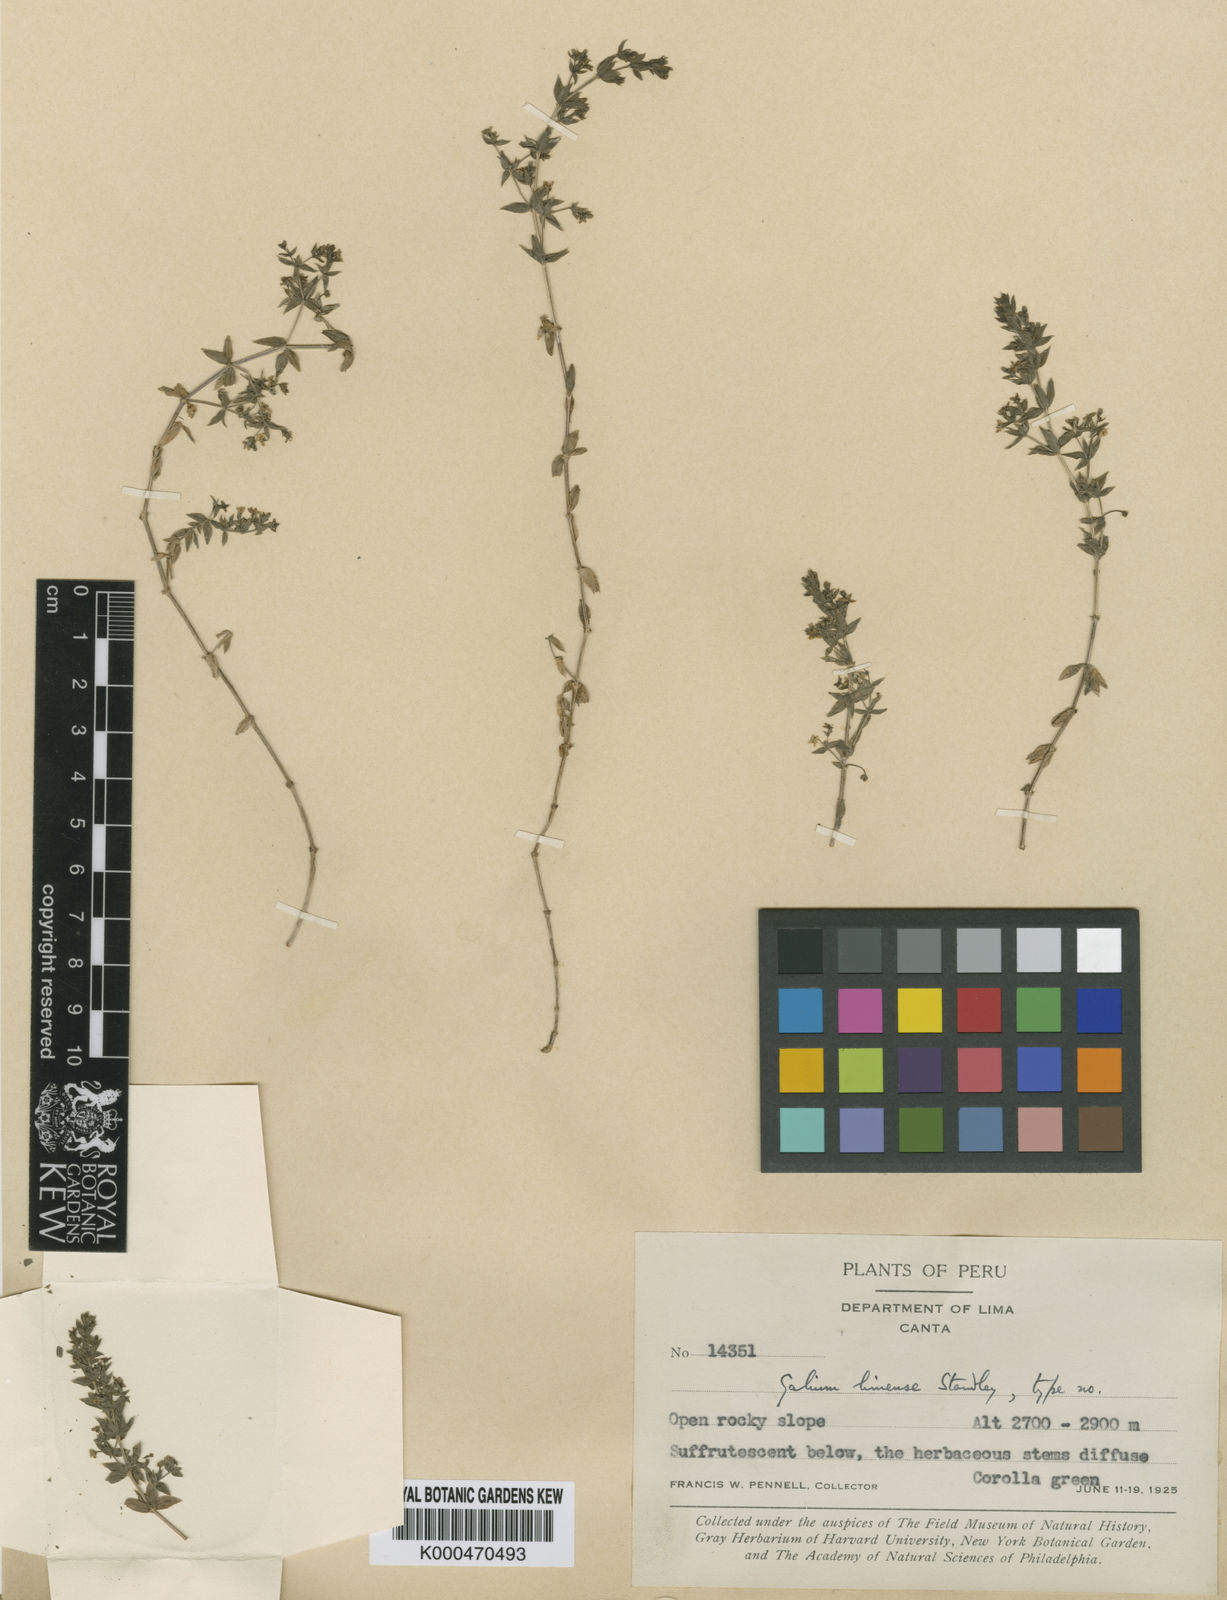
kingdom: Plantae
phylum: Tracheophyta
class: Magnoliopsida
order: Gentianales
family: Rubiaceae
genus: Galium
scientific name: Galium weberbaueri
